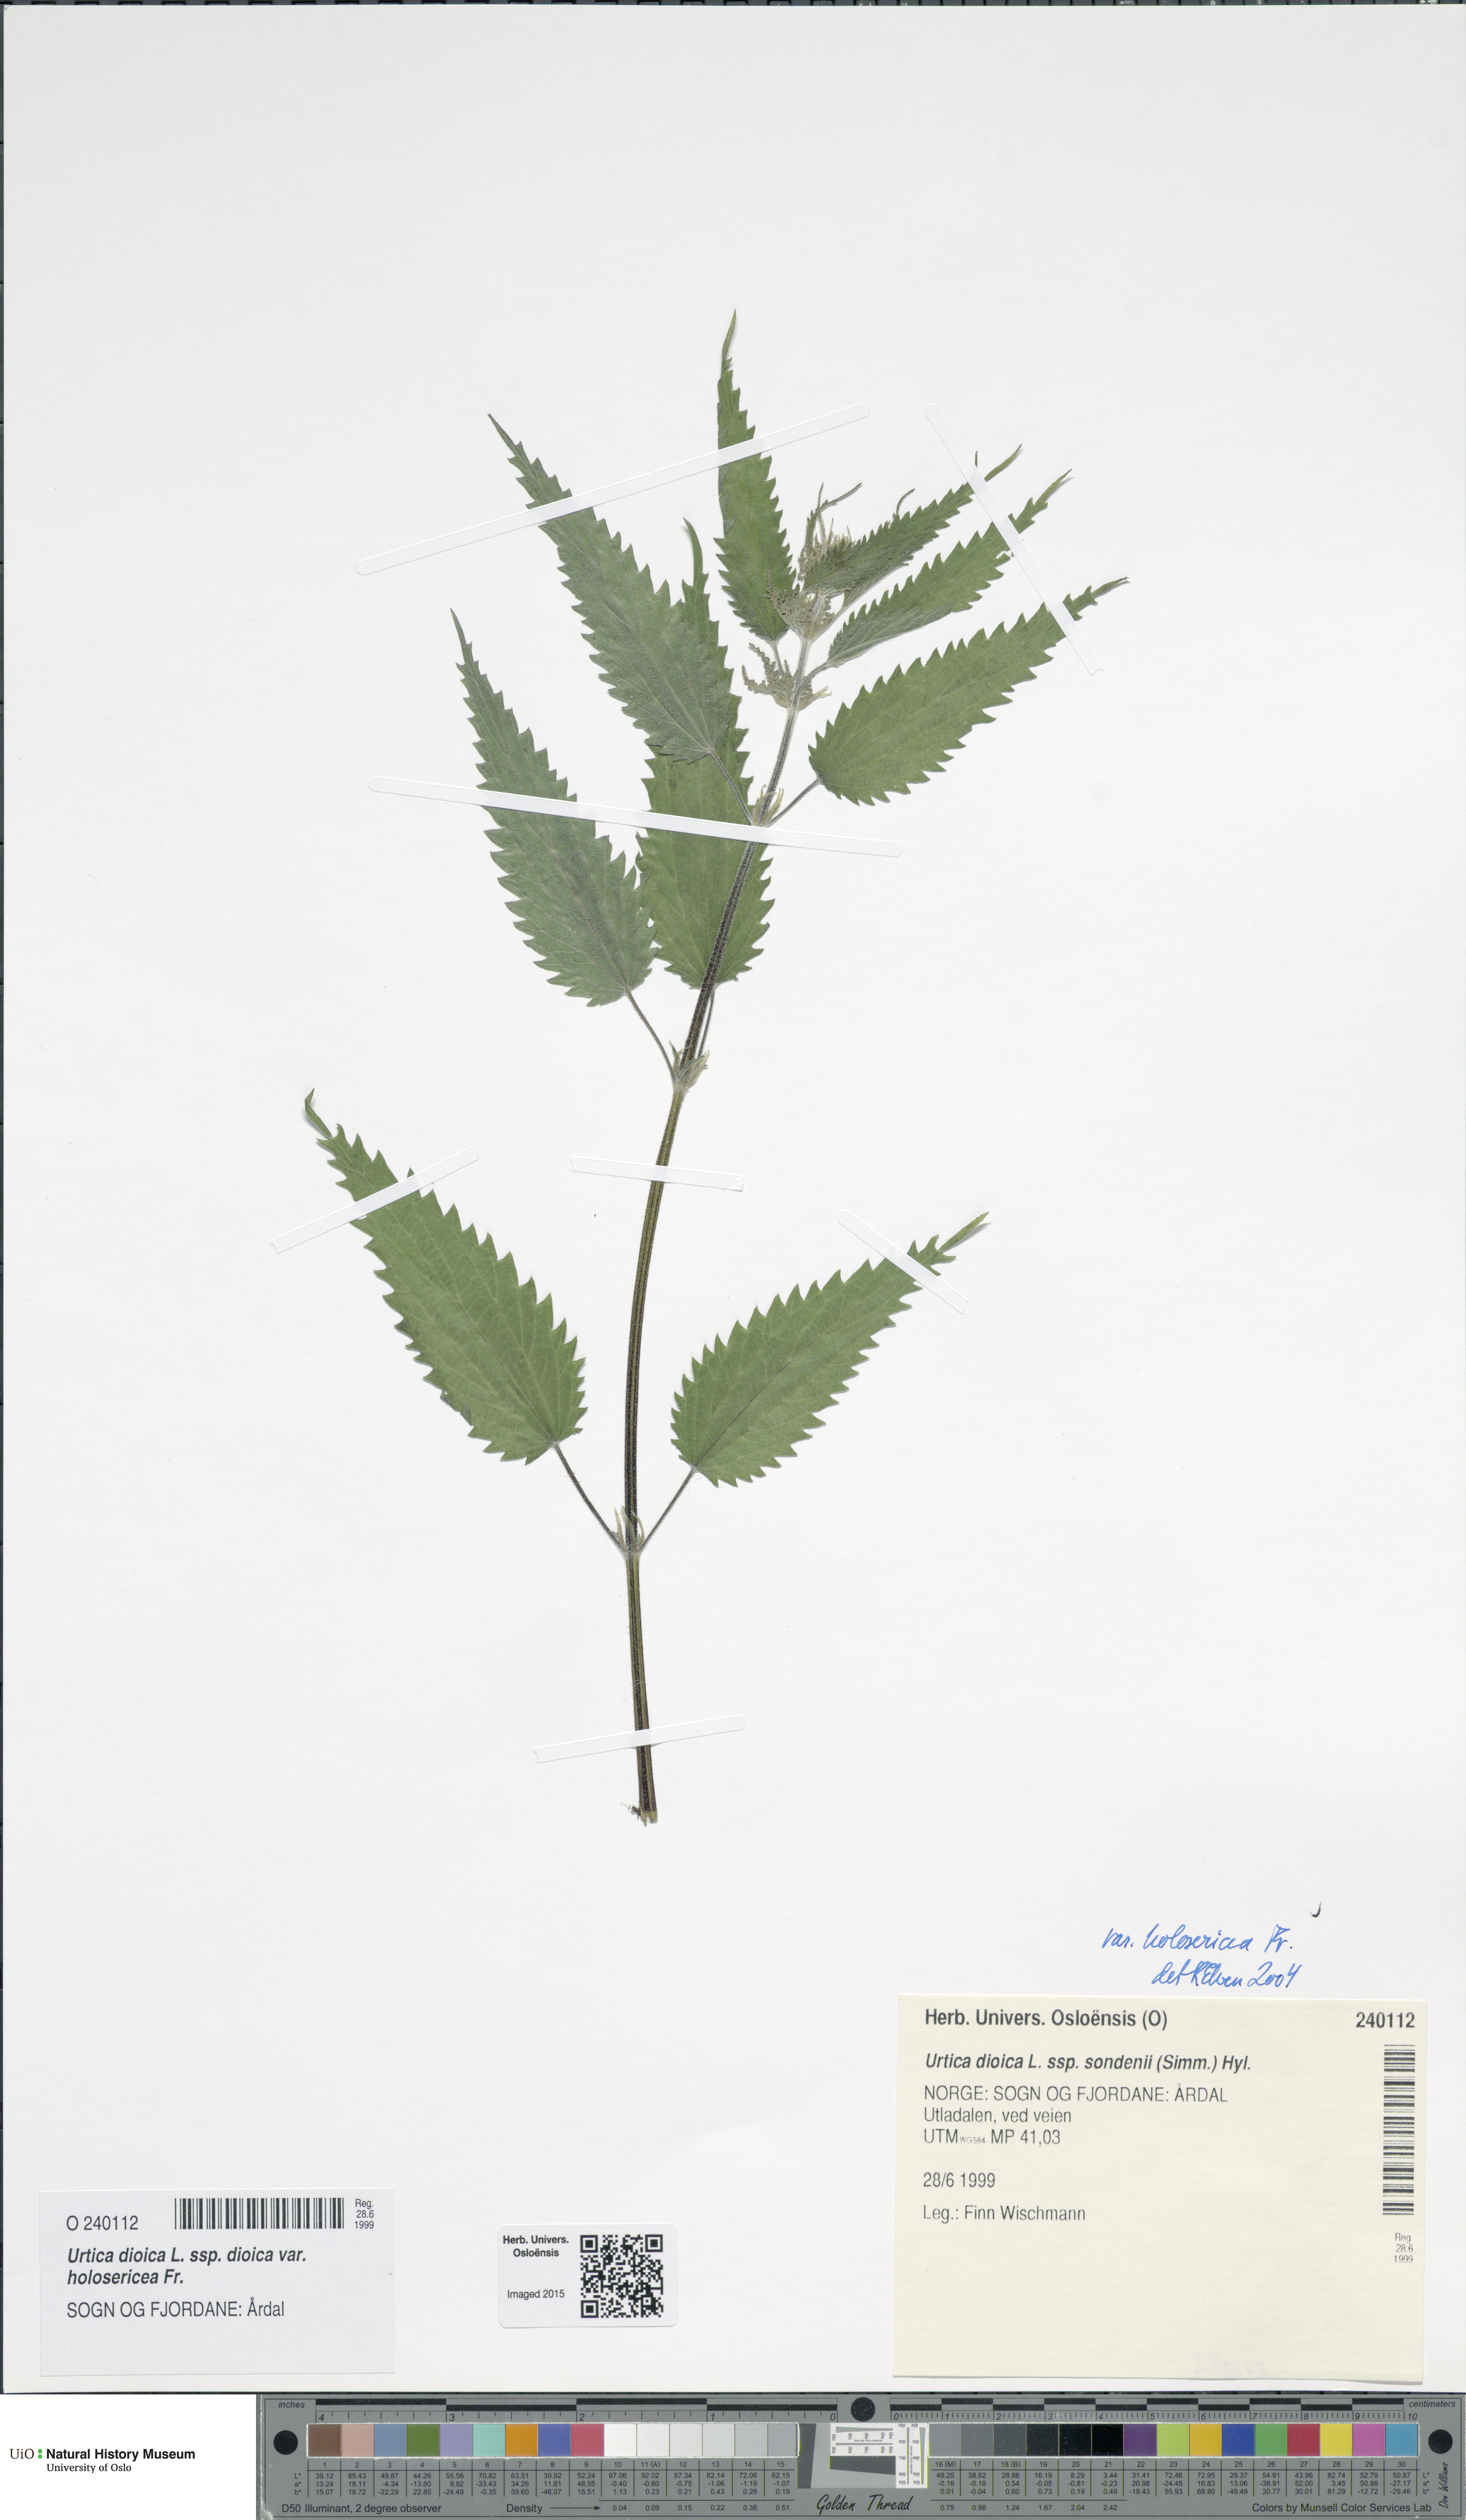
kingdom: Plantae
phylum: Tracheophyta
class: Magnoliopsida
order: Rosales
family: Urticaceae
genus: Urtica
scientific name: Urtica dioica
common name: Common nettle
